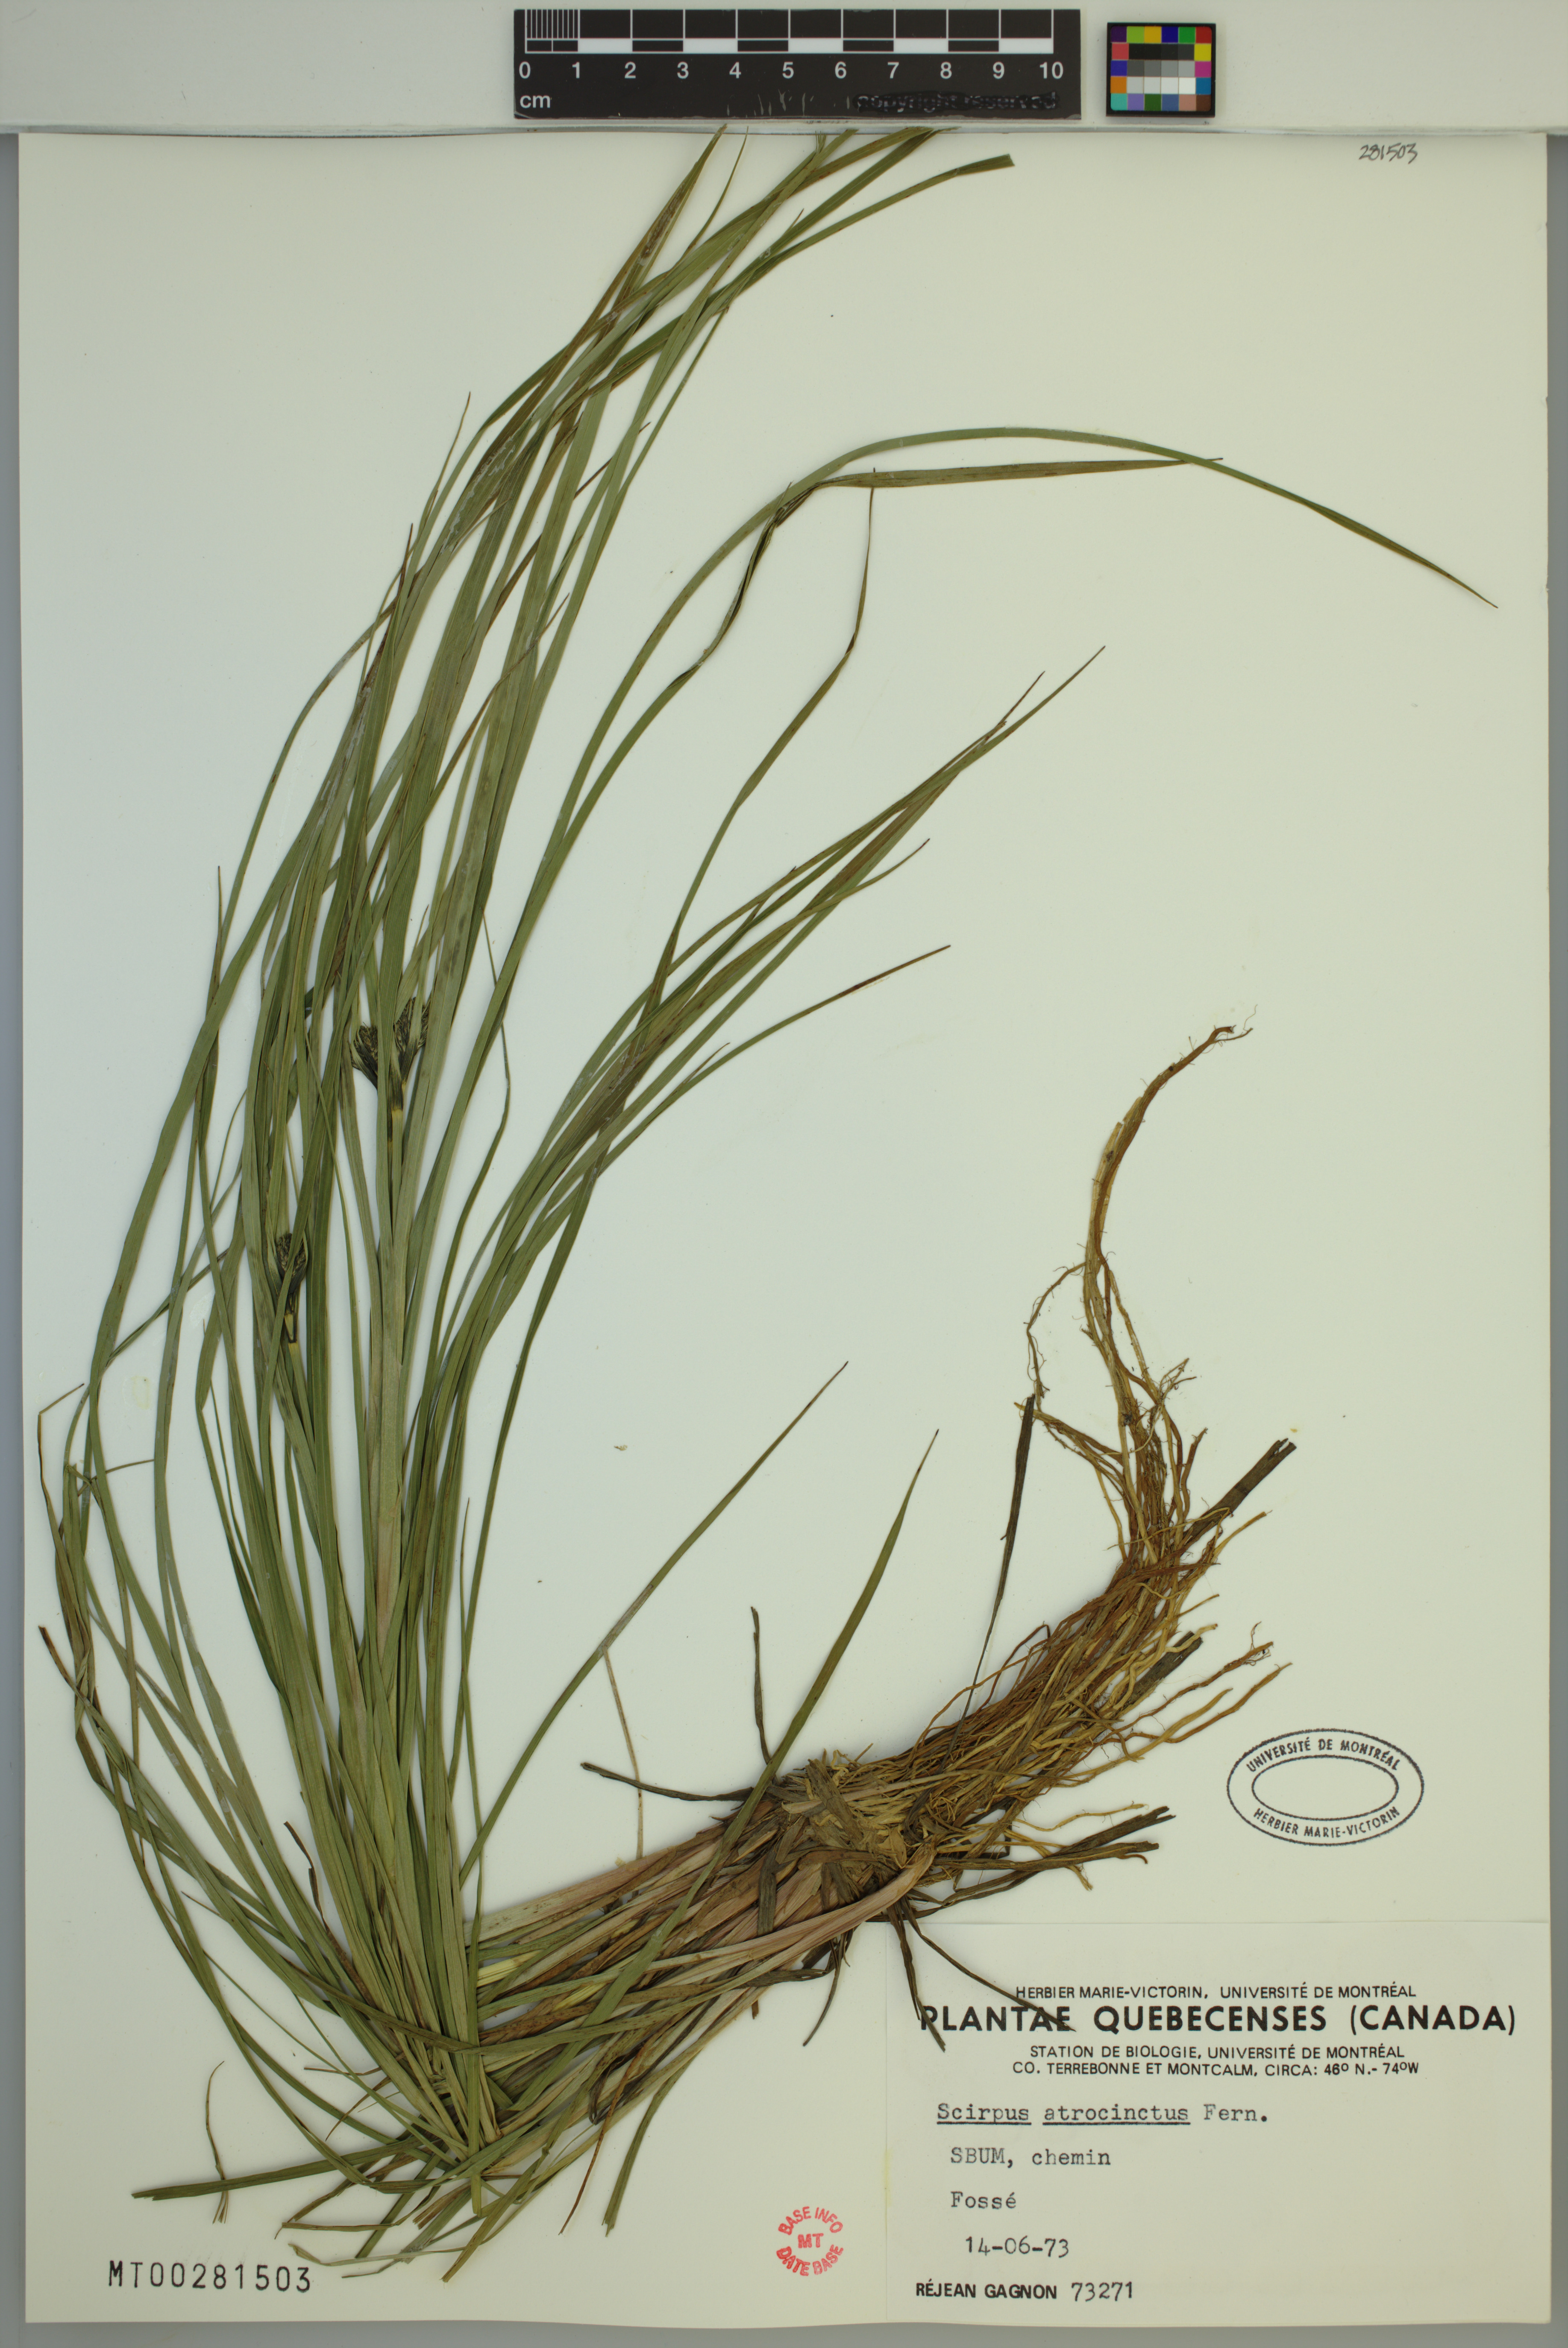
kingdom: Plantae
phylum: Tracheophyta
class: Liliopsida
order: Poales
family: Cyperaceae
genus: Scirpus
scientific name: Scirpus atrocinctus
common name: Black-girdled bulrush
